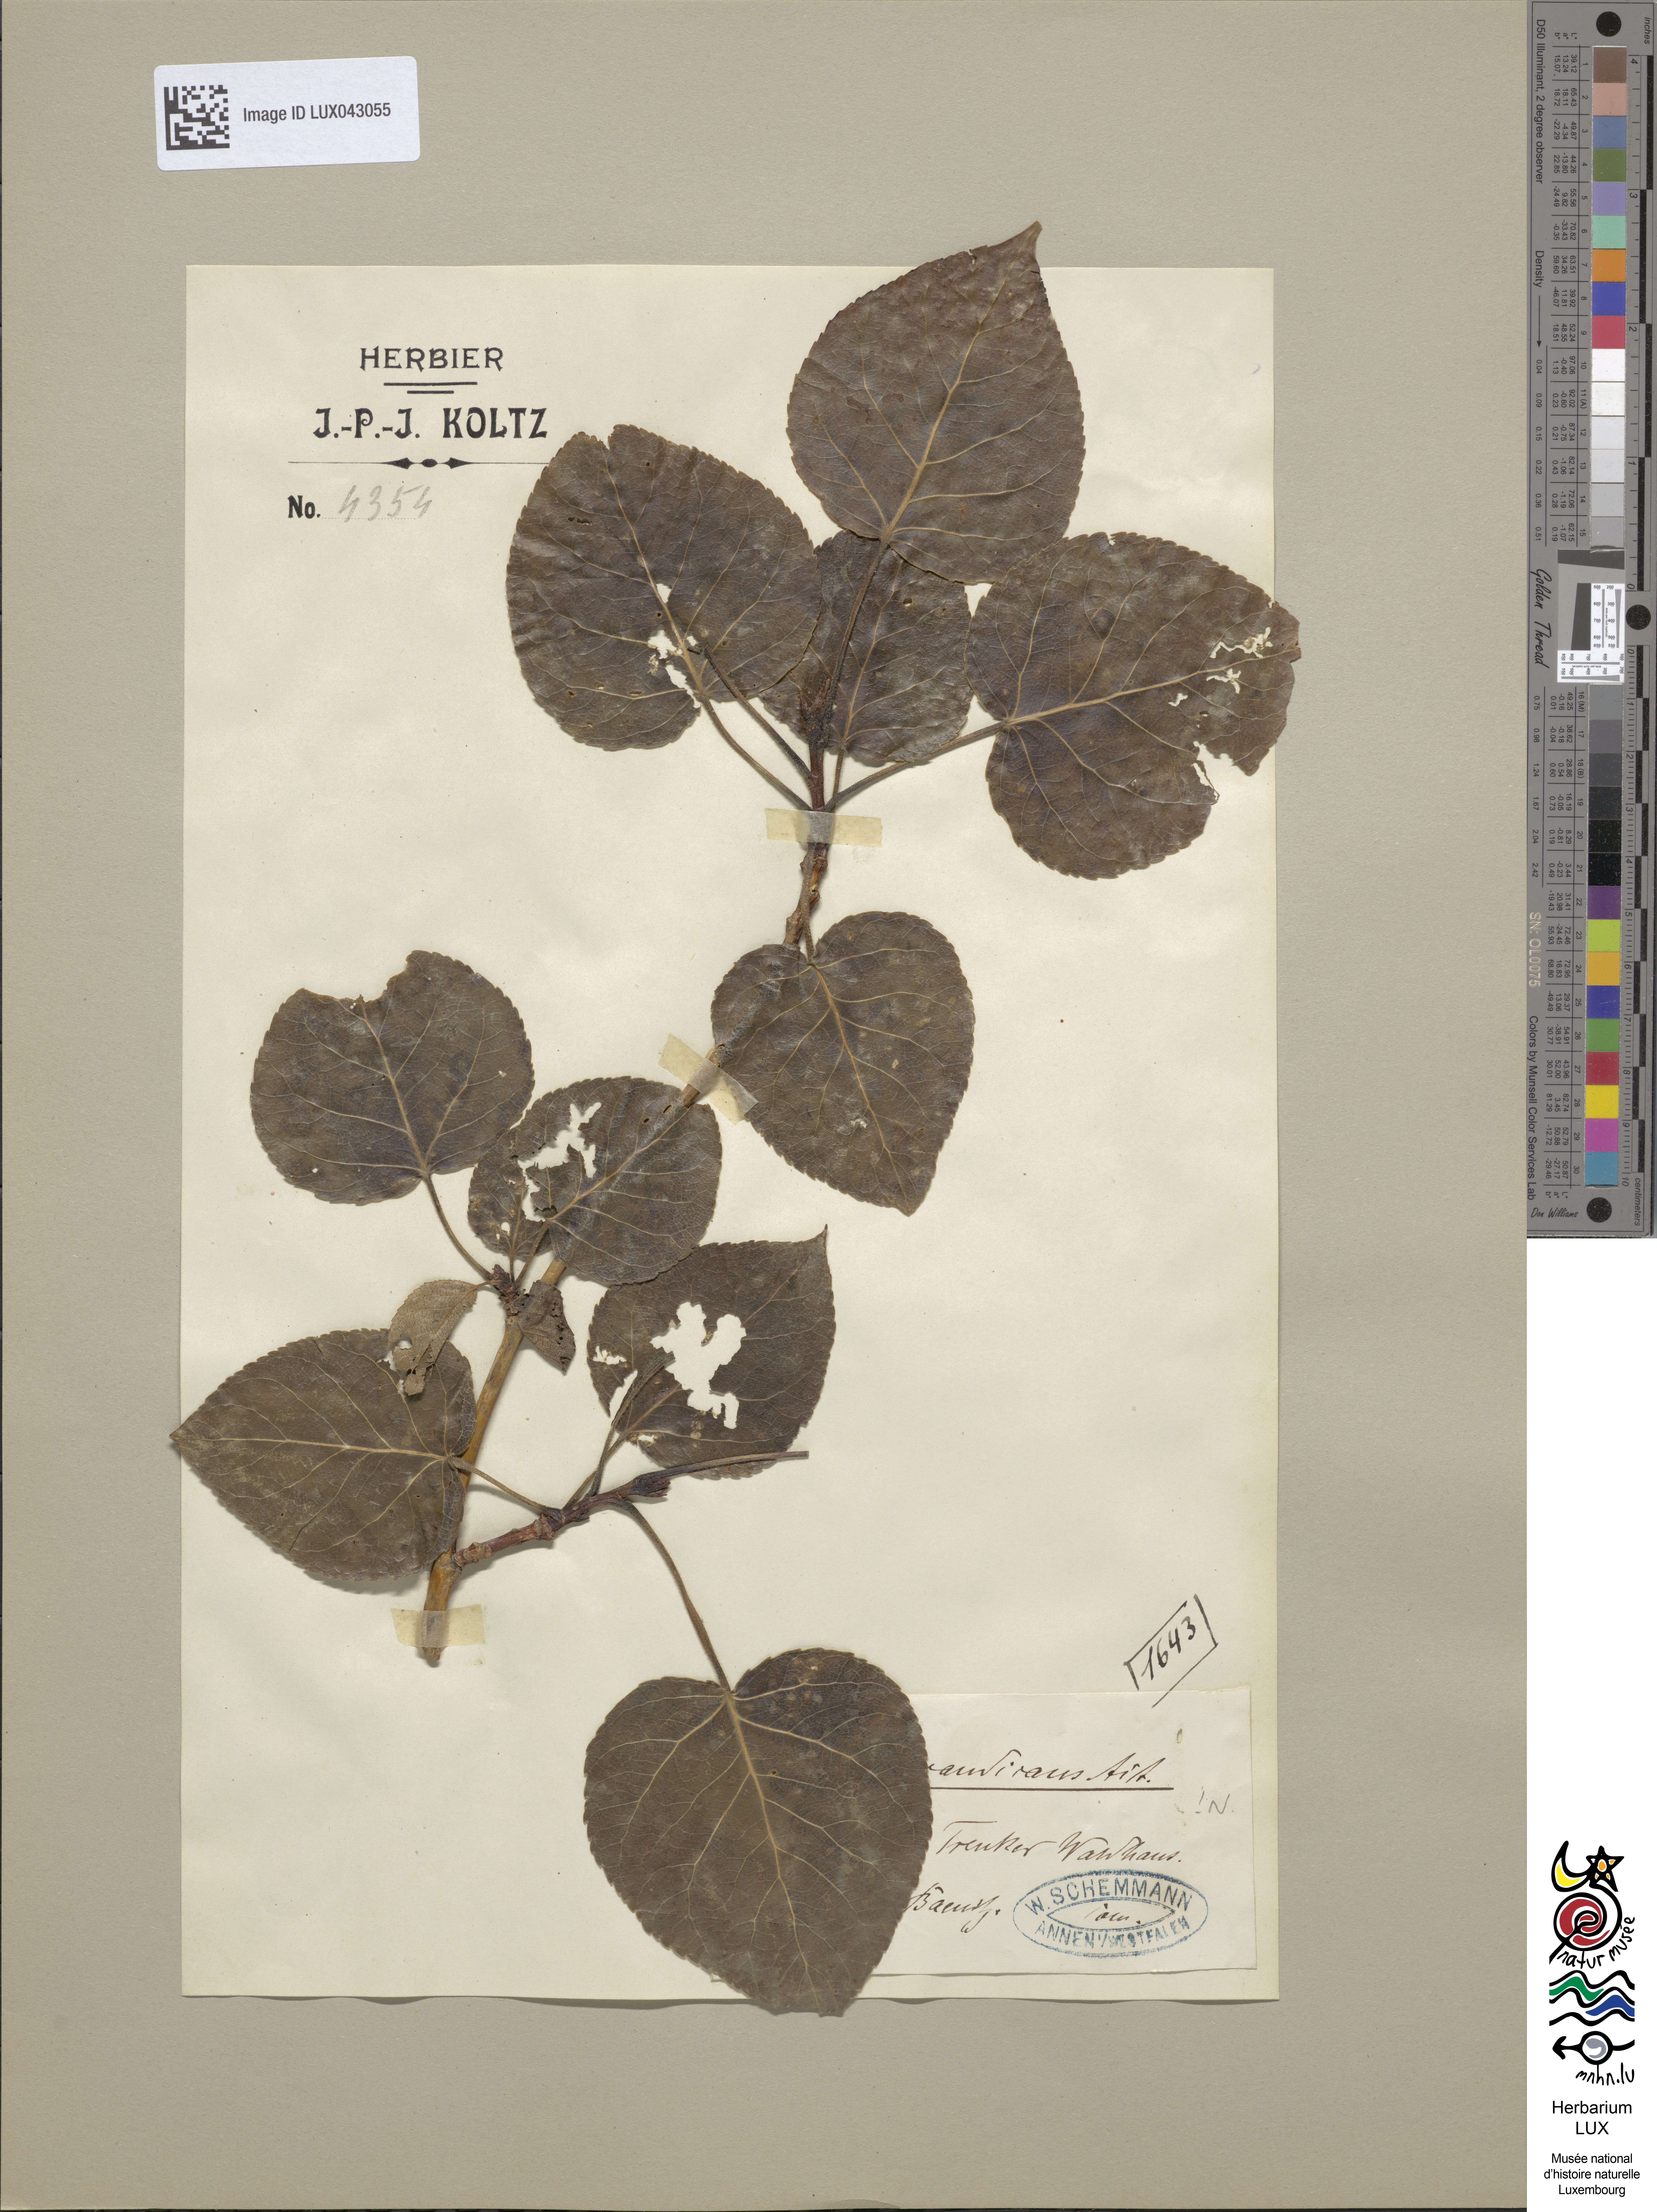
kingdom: Plantae
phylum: Tracheophyta
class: Magnoliopsida
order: Malpighiales
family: Salicaceae
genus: Populus
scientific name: Populus balsamifera
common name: Balsam poplar
